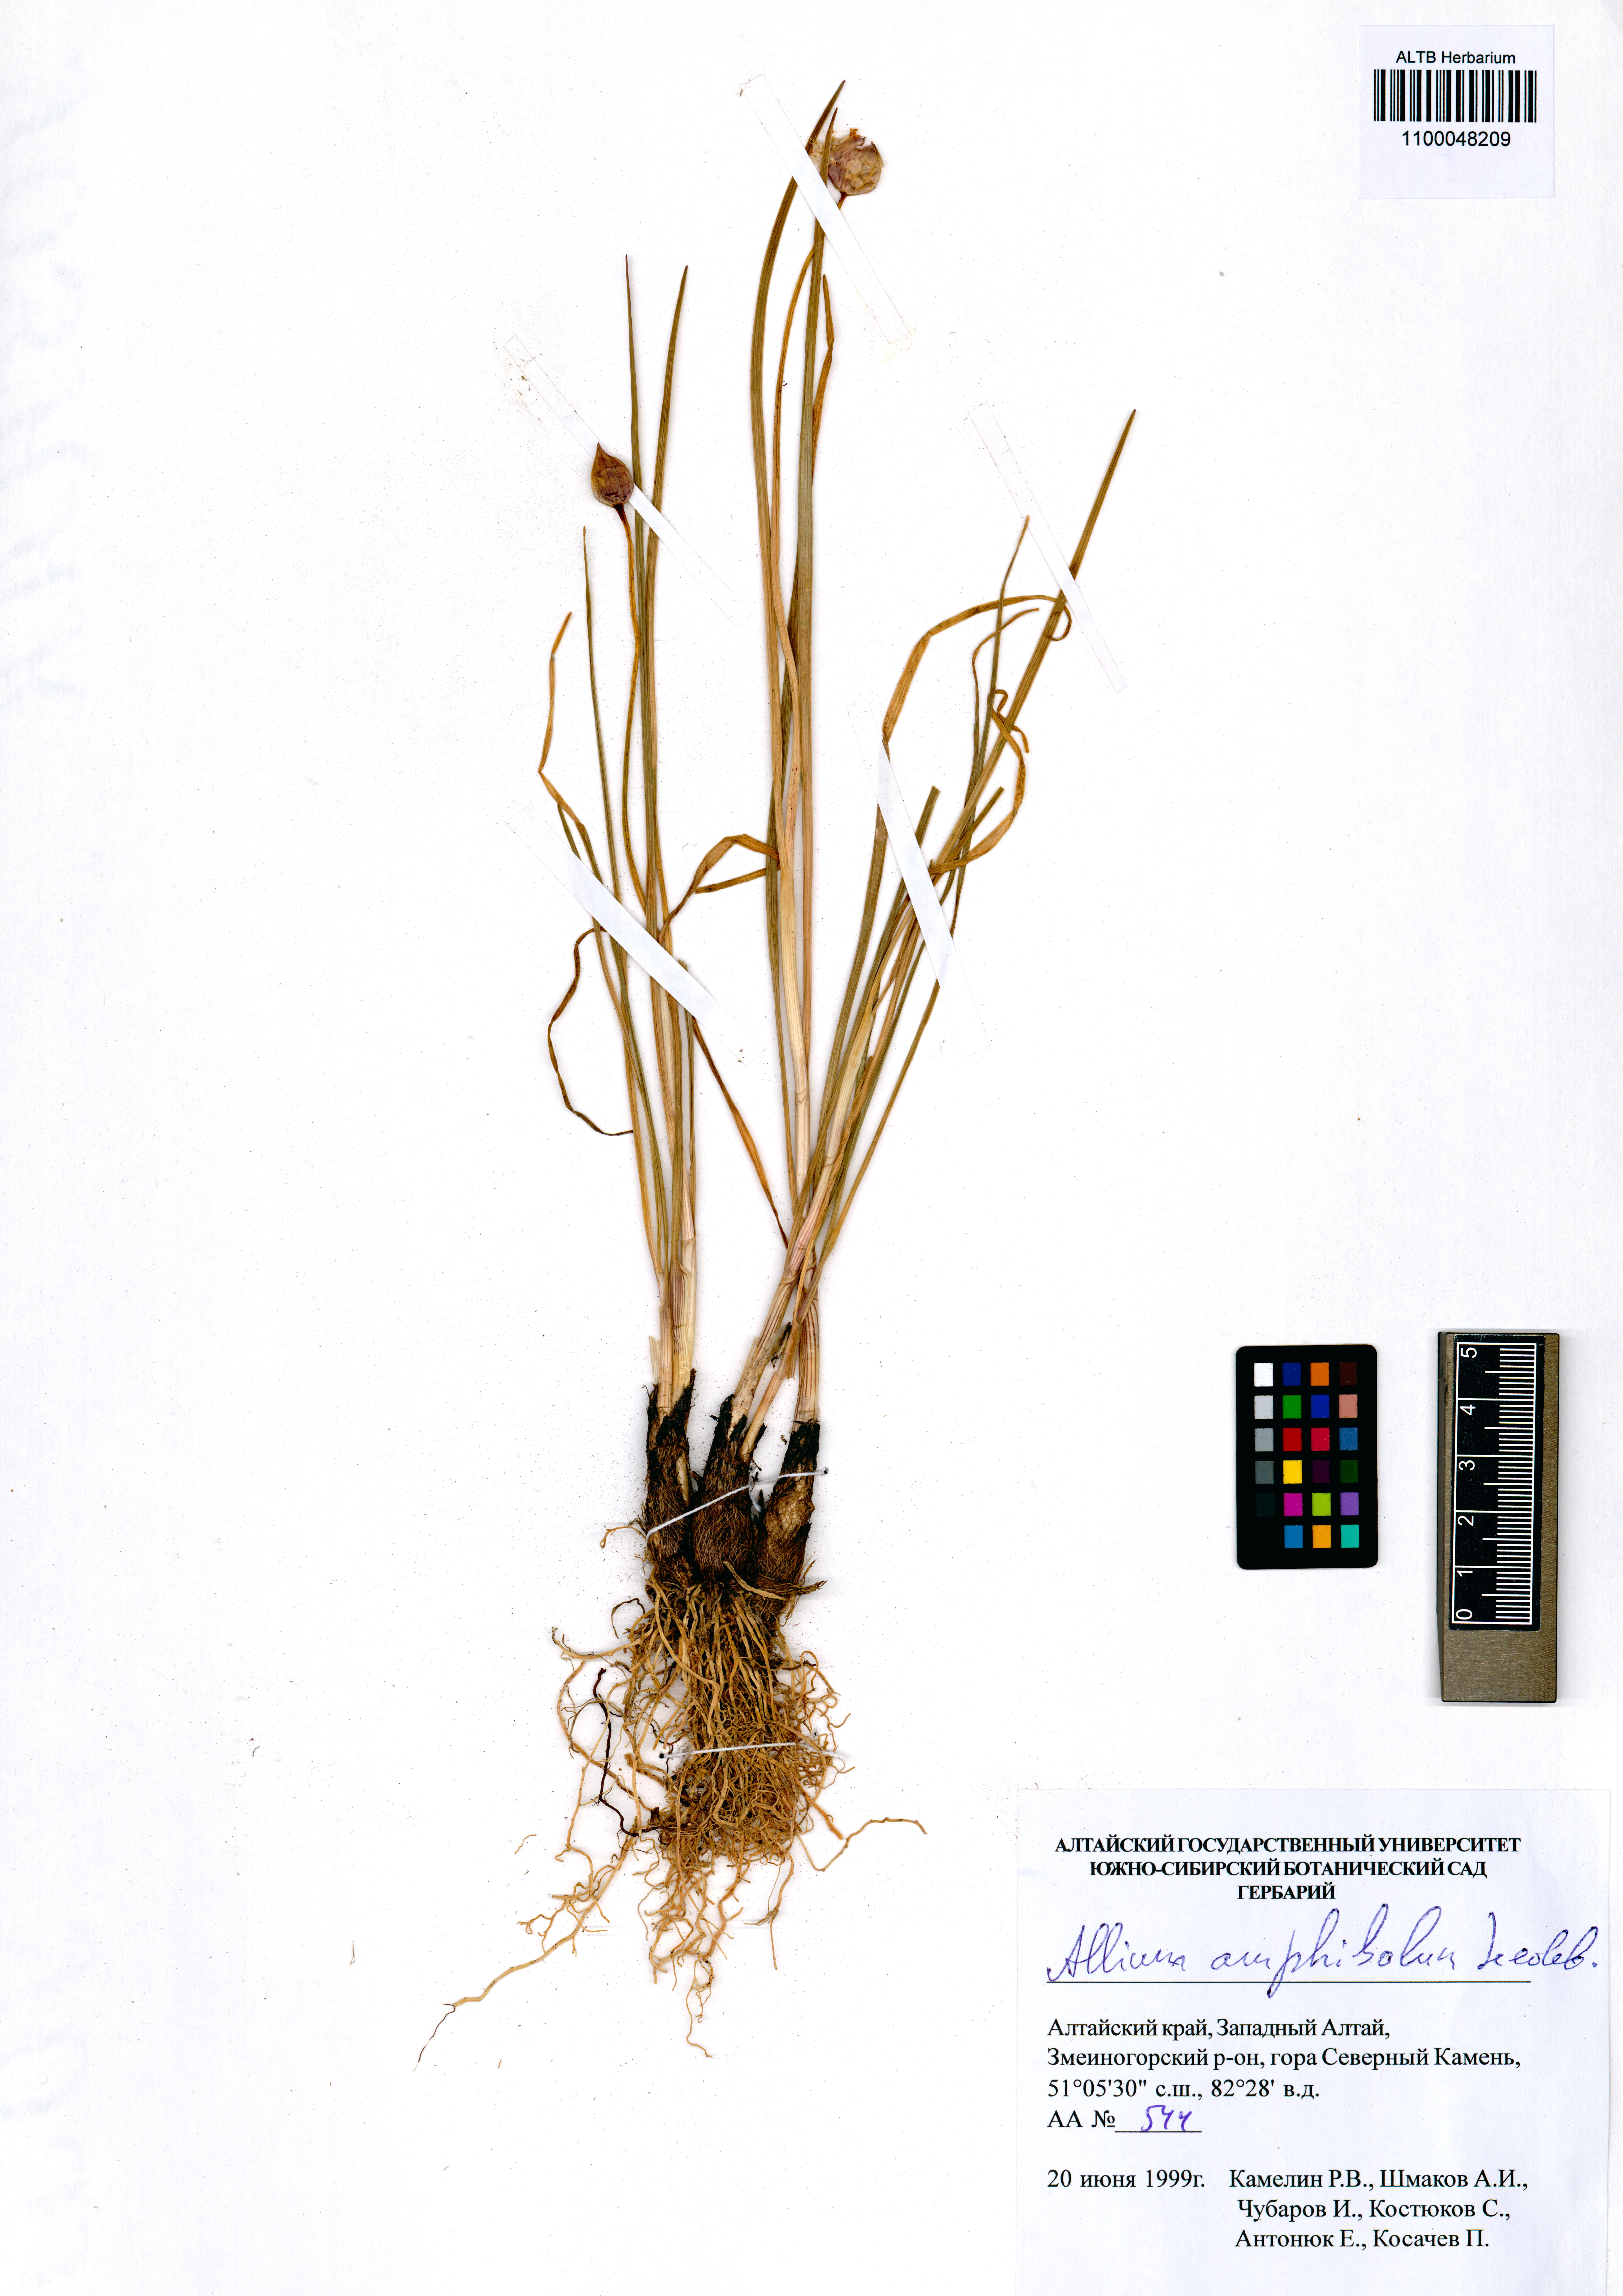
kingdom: Plantae
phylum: Tracheophyta
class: Liliopsida
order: Asparagales
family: Amaryllidaceae
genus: Allium
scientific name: Allium amphibolum
